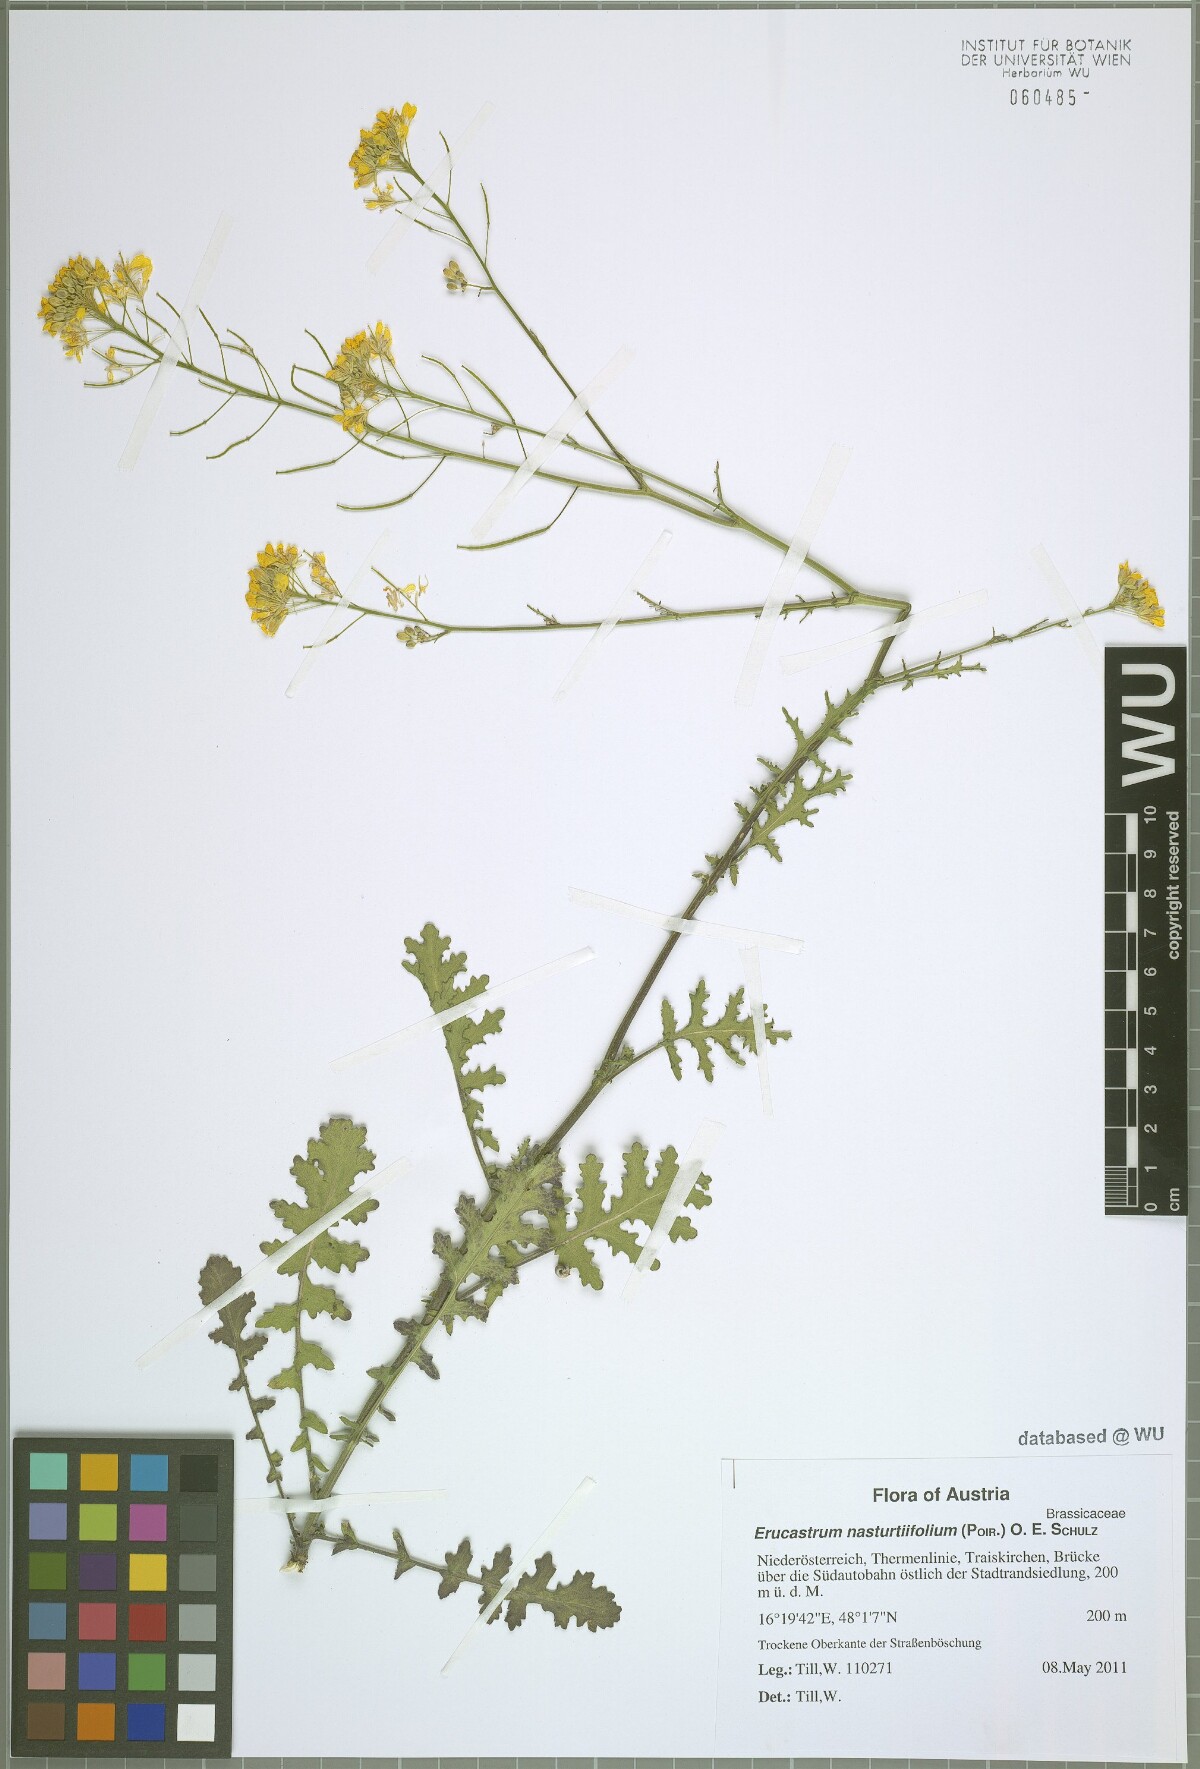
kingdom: Plantae
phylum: Tracheophyta
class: Magnoliopsida
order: Brassicales
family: Brassicaceae
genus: Erucastrum
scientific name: Erucastrum nasturtiifolium
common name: Watercress-leaf rocket
